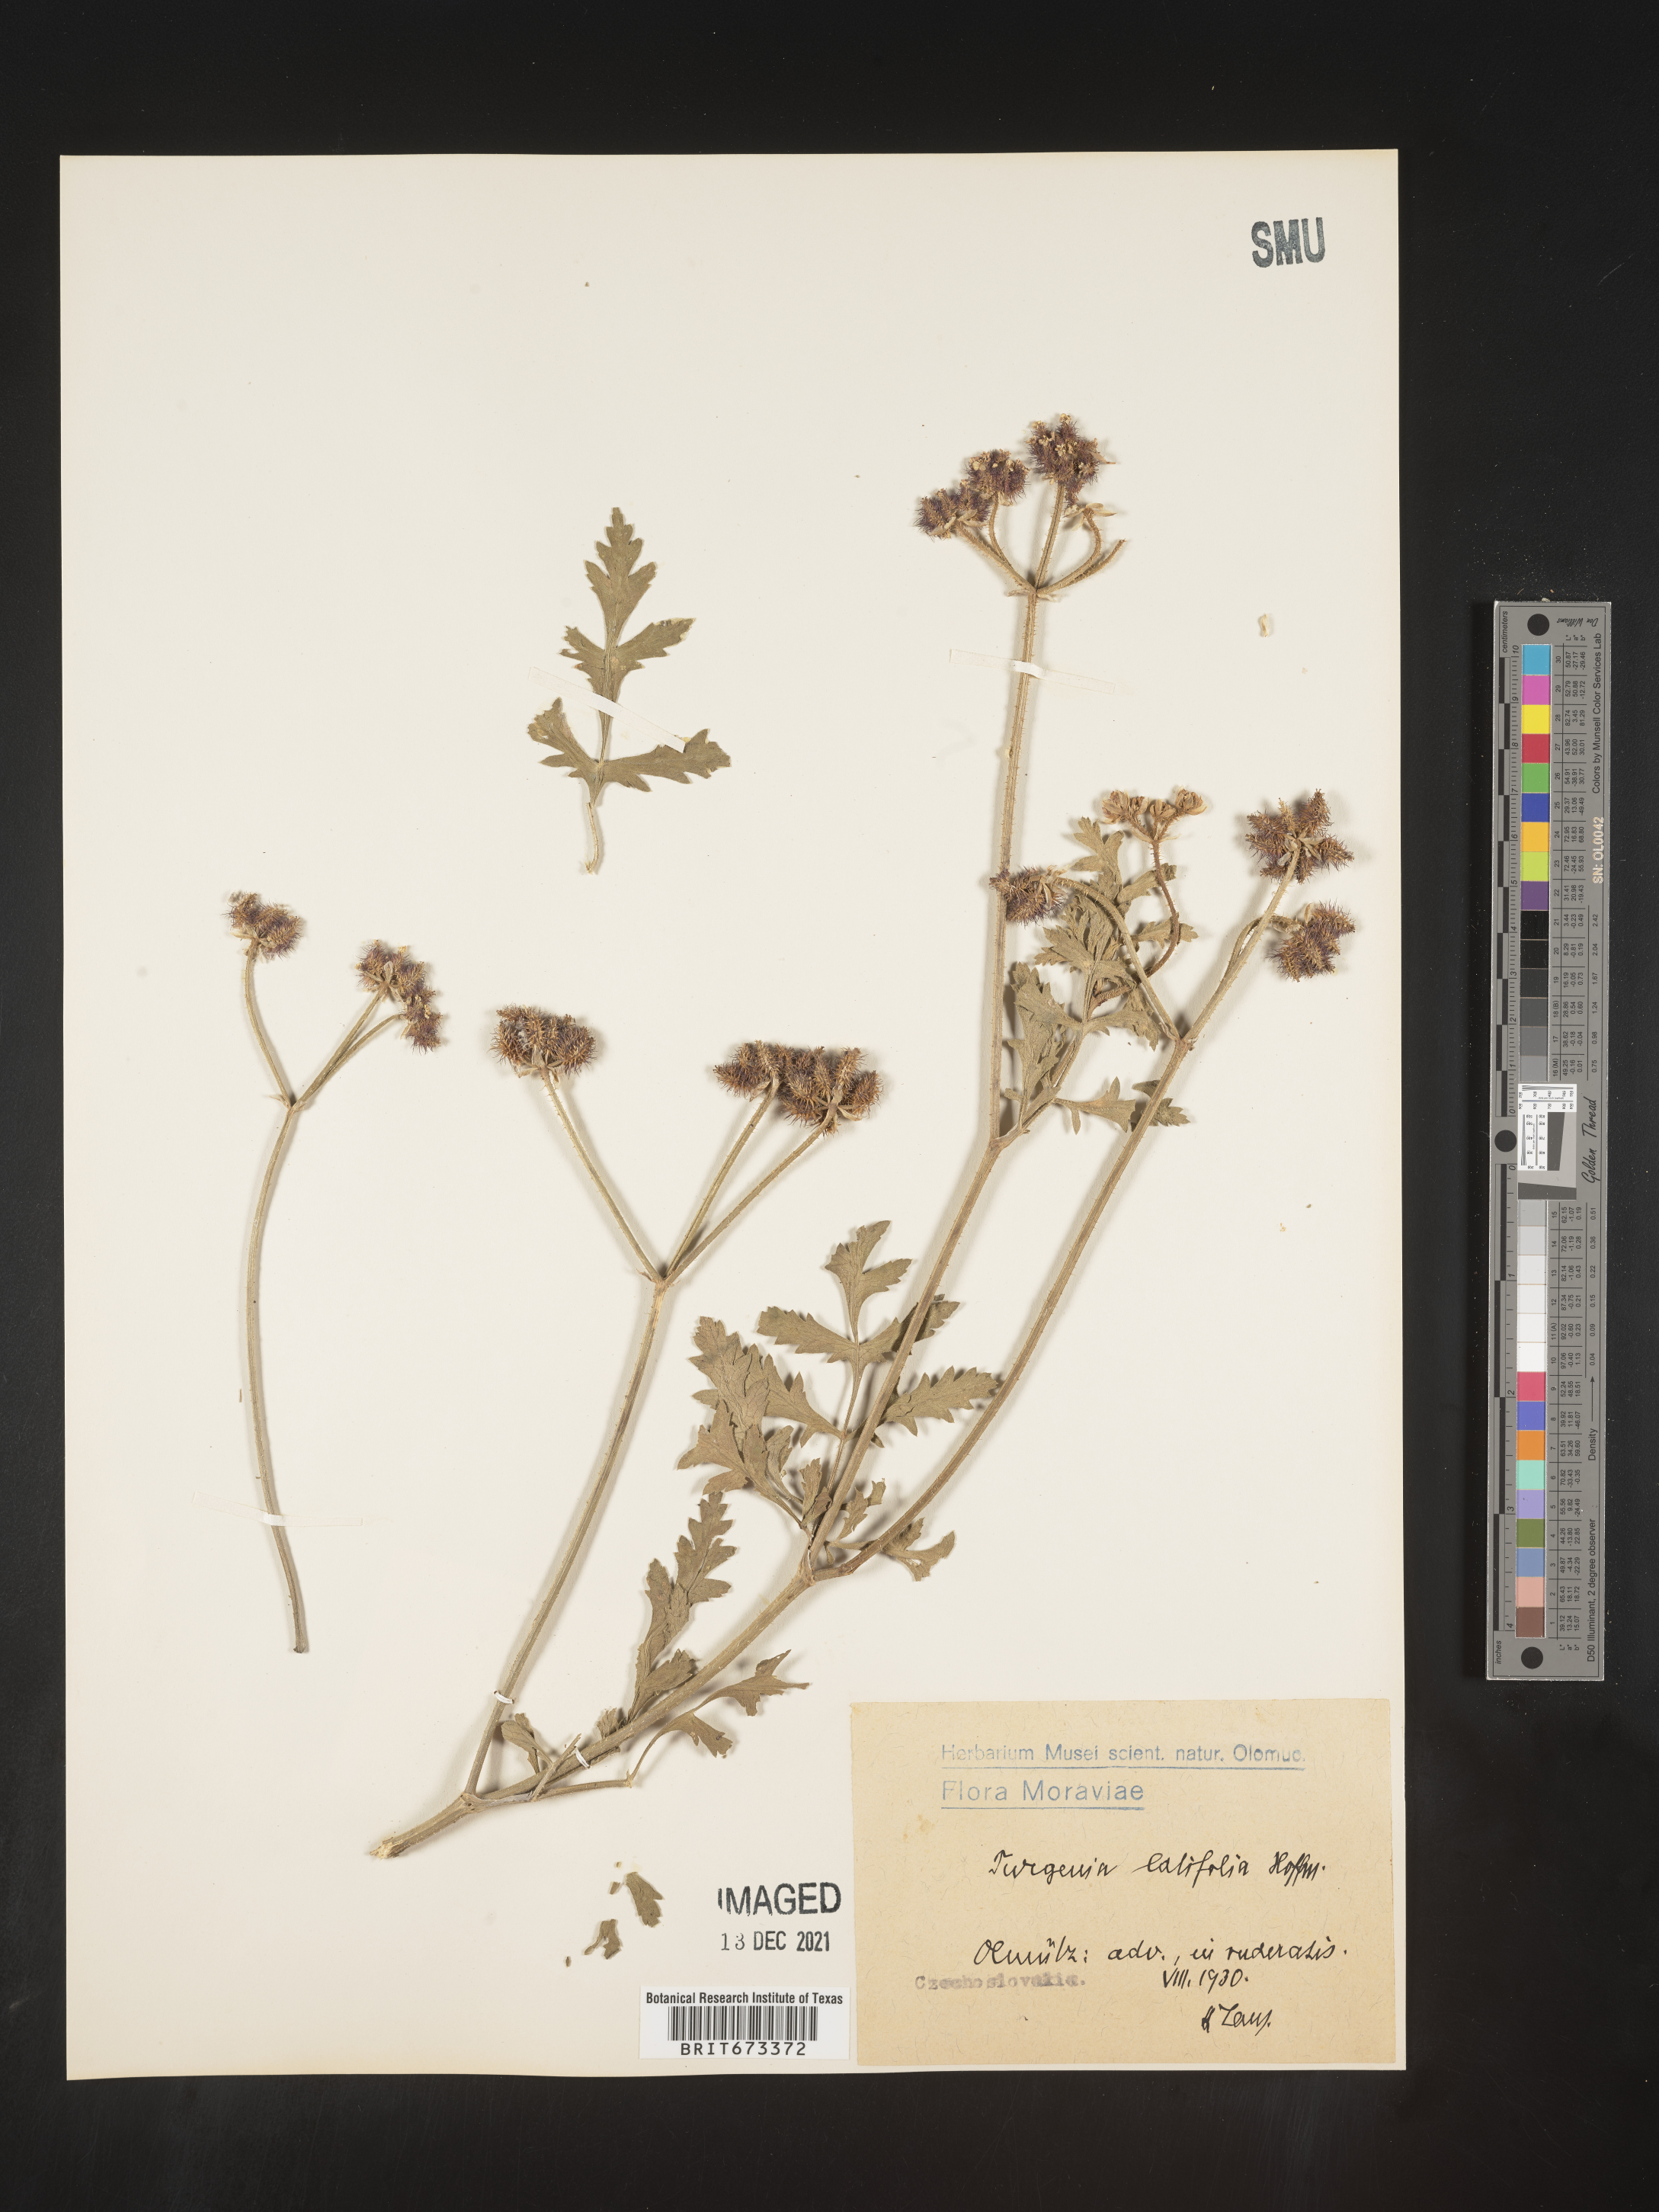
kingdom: Plantae
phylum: Tracheophyta
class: Magnoliopsida
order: Apiales
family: Apiaceae
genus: Turgenia
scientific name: Turgenia
